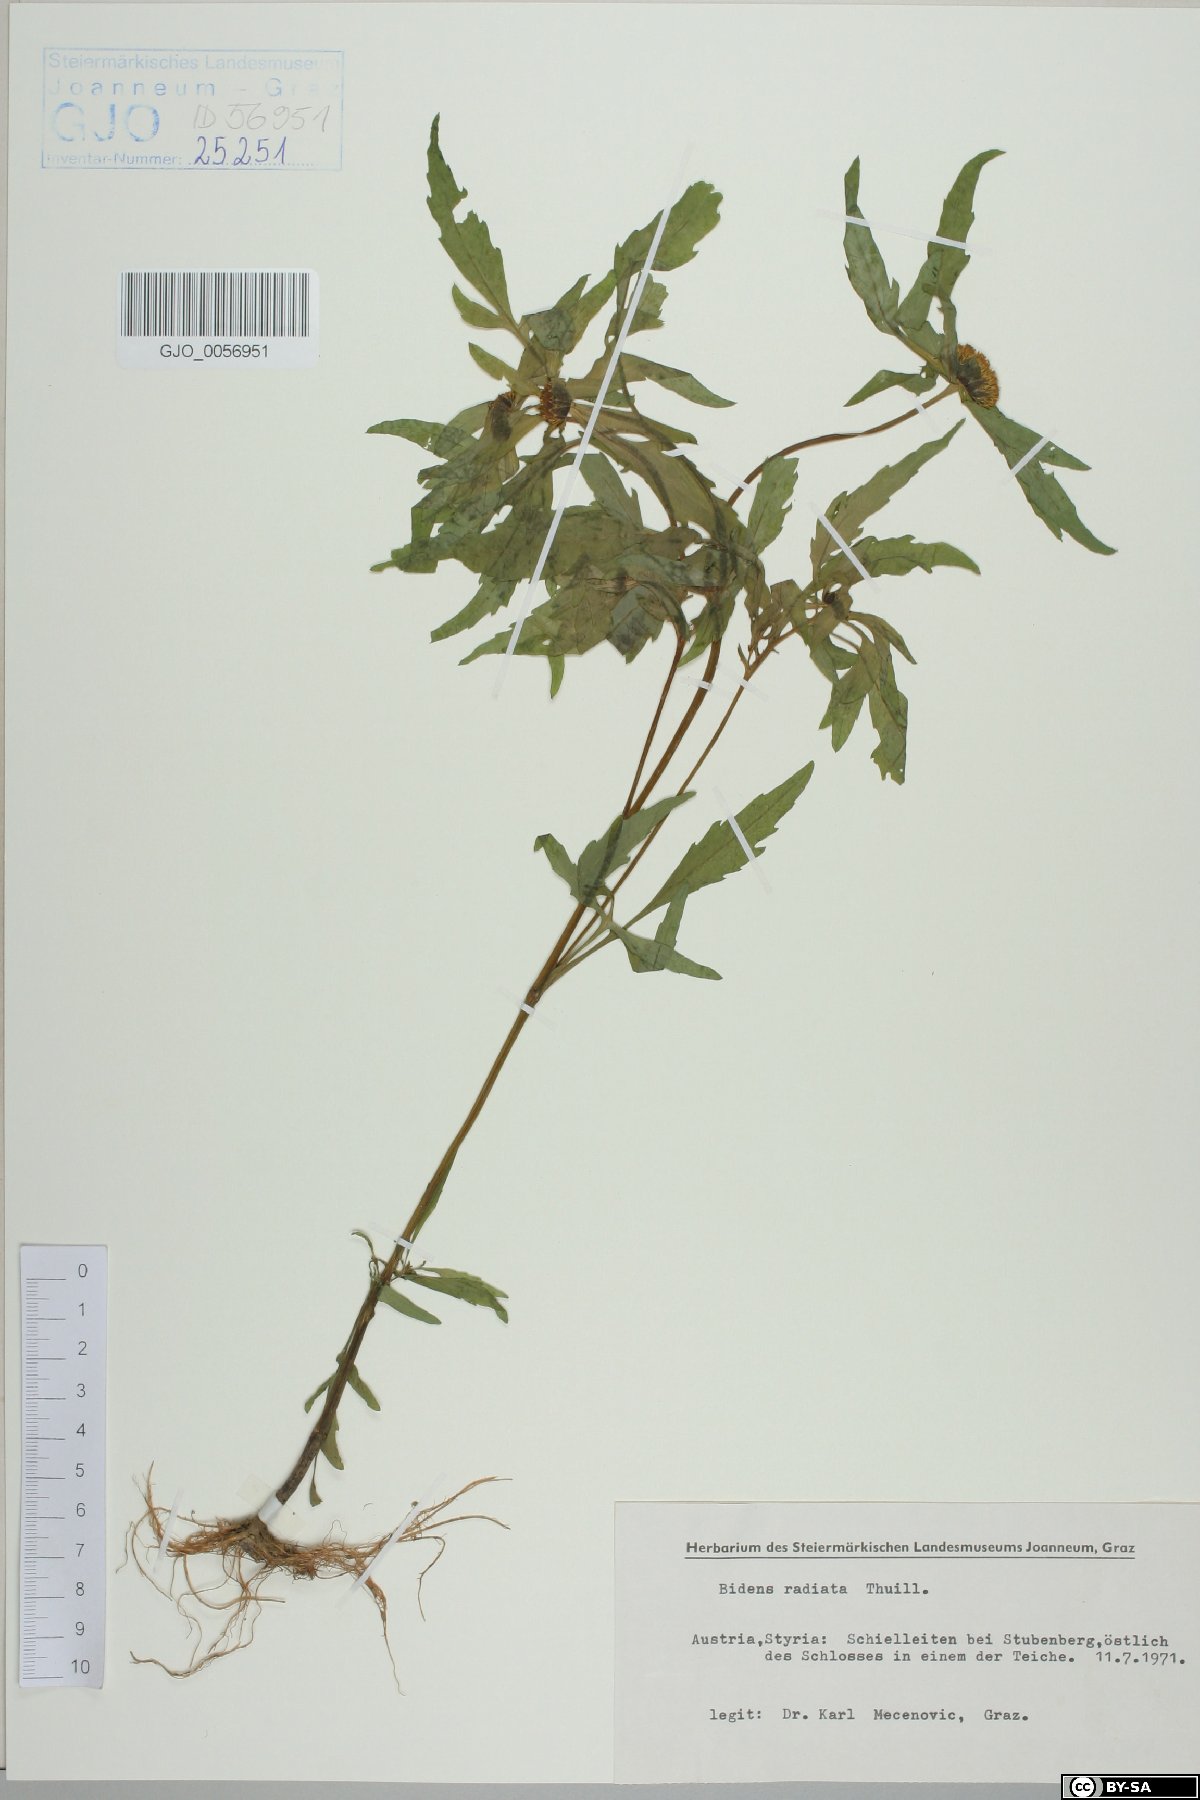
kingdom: Plantae
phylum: Tracheophyta
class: Magnoliopsida
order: Asterales
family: Asteraceae
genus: Bidens
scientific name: Bidens radiata
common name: Radiating bur-marigold
